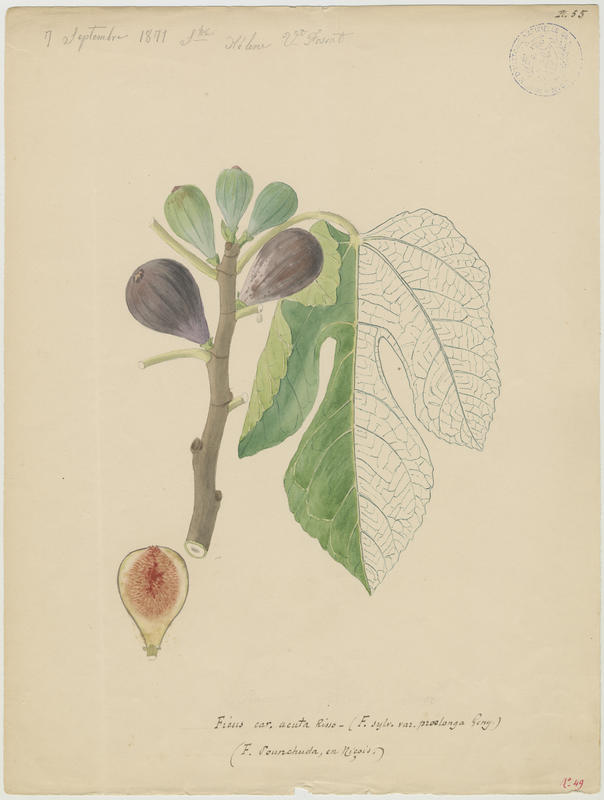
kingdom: Plantae
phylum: Tracheophyta
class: Magnoliopsida
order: Rosales
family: Moraceae
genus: Ficus
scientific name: Ficus carica
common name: Fig
